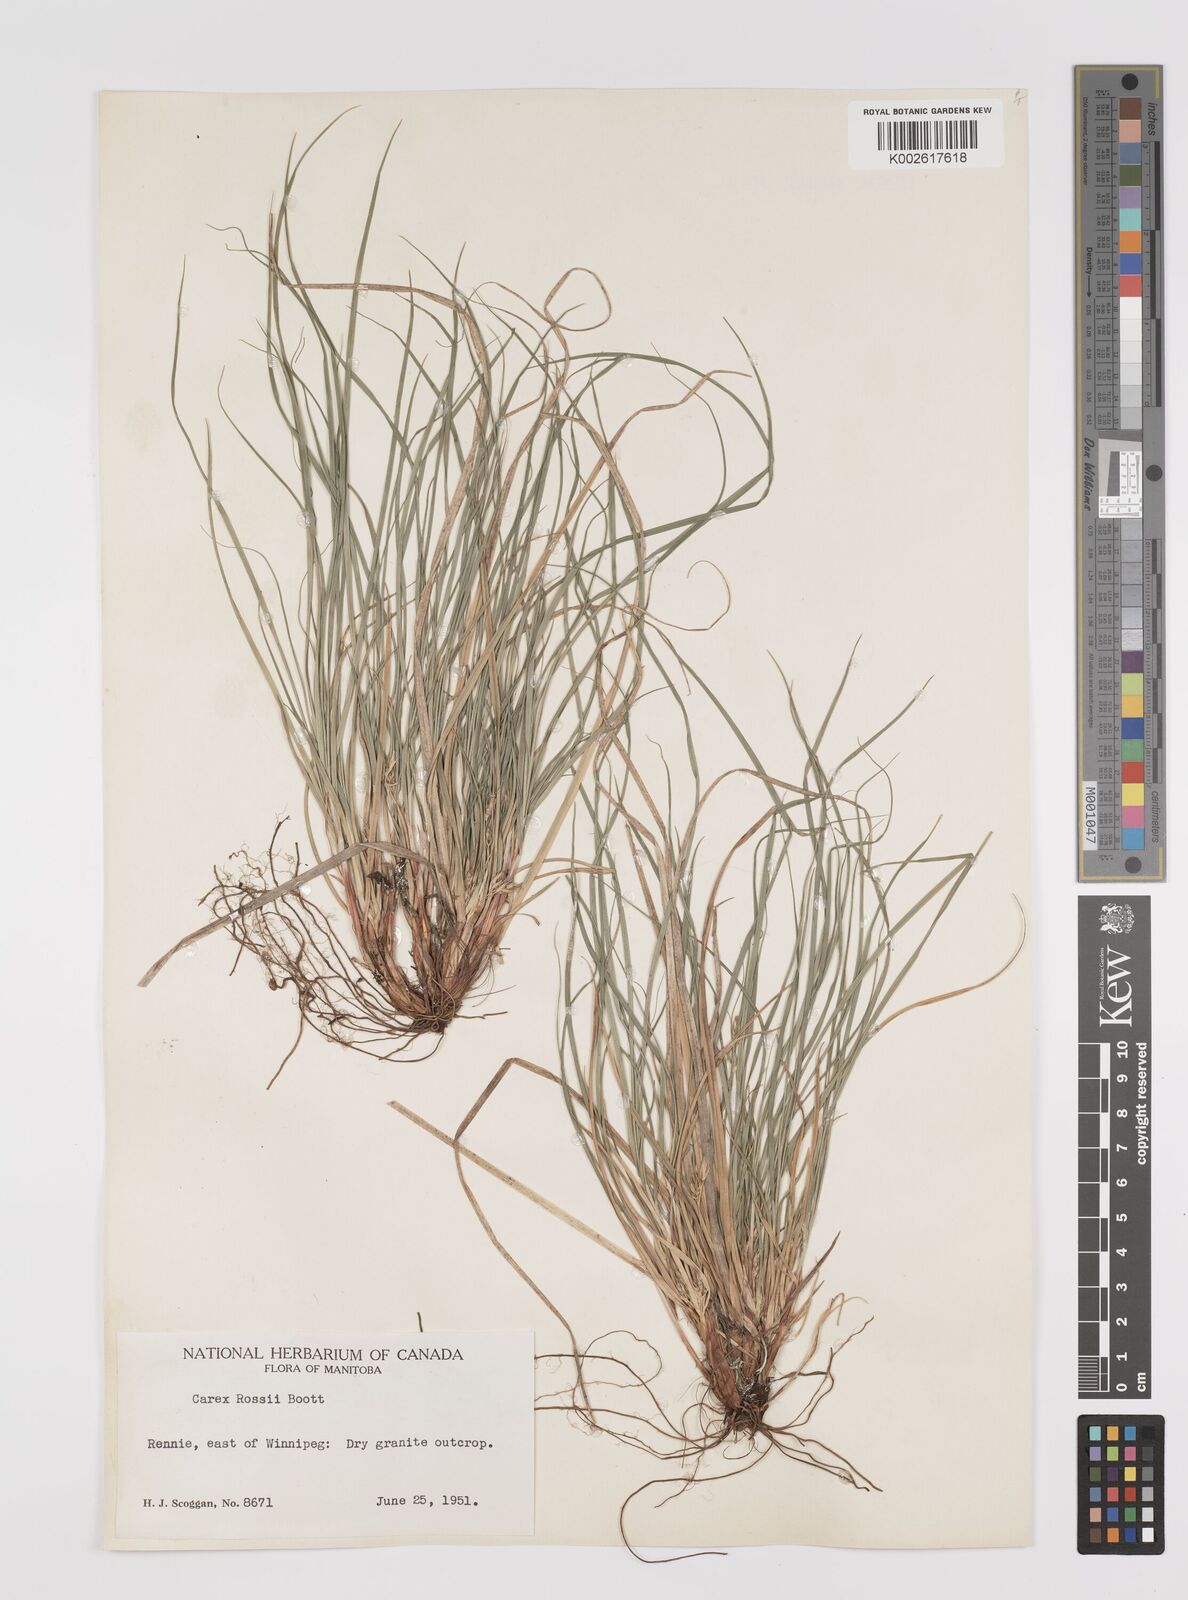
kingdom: Plantae
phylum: Tracheophyta
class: Liliopsida
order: Poales
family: Cyperaceae
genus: Carex
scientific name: Carex rossii
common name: Ross' sedge
